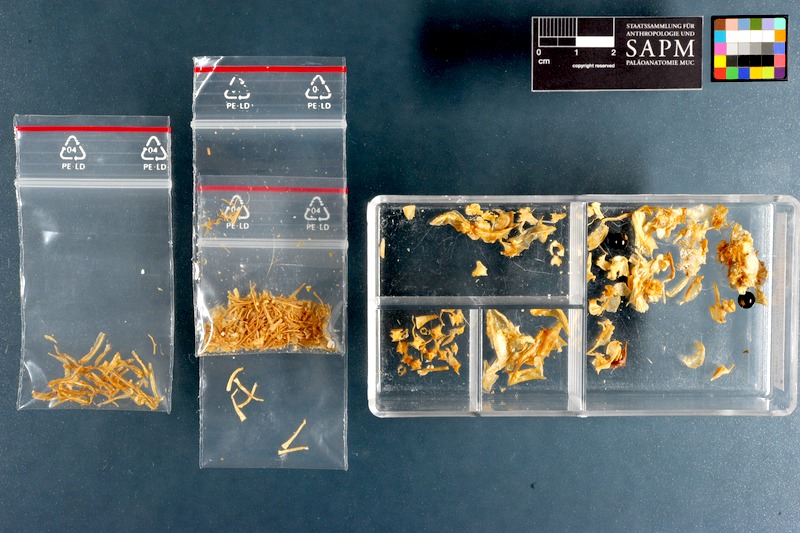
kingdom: Animalia
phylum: Chordata
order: Perciformes
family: Monodactylidae
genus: Monodactylus
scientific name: Monodactylus falciformis
